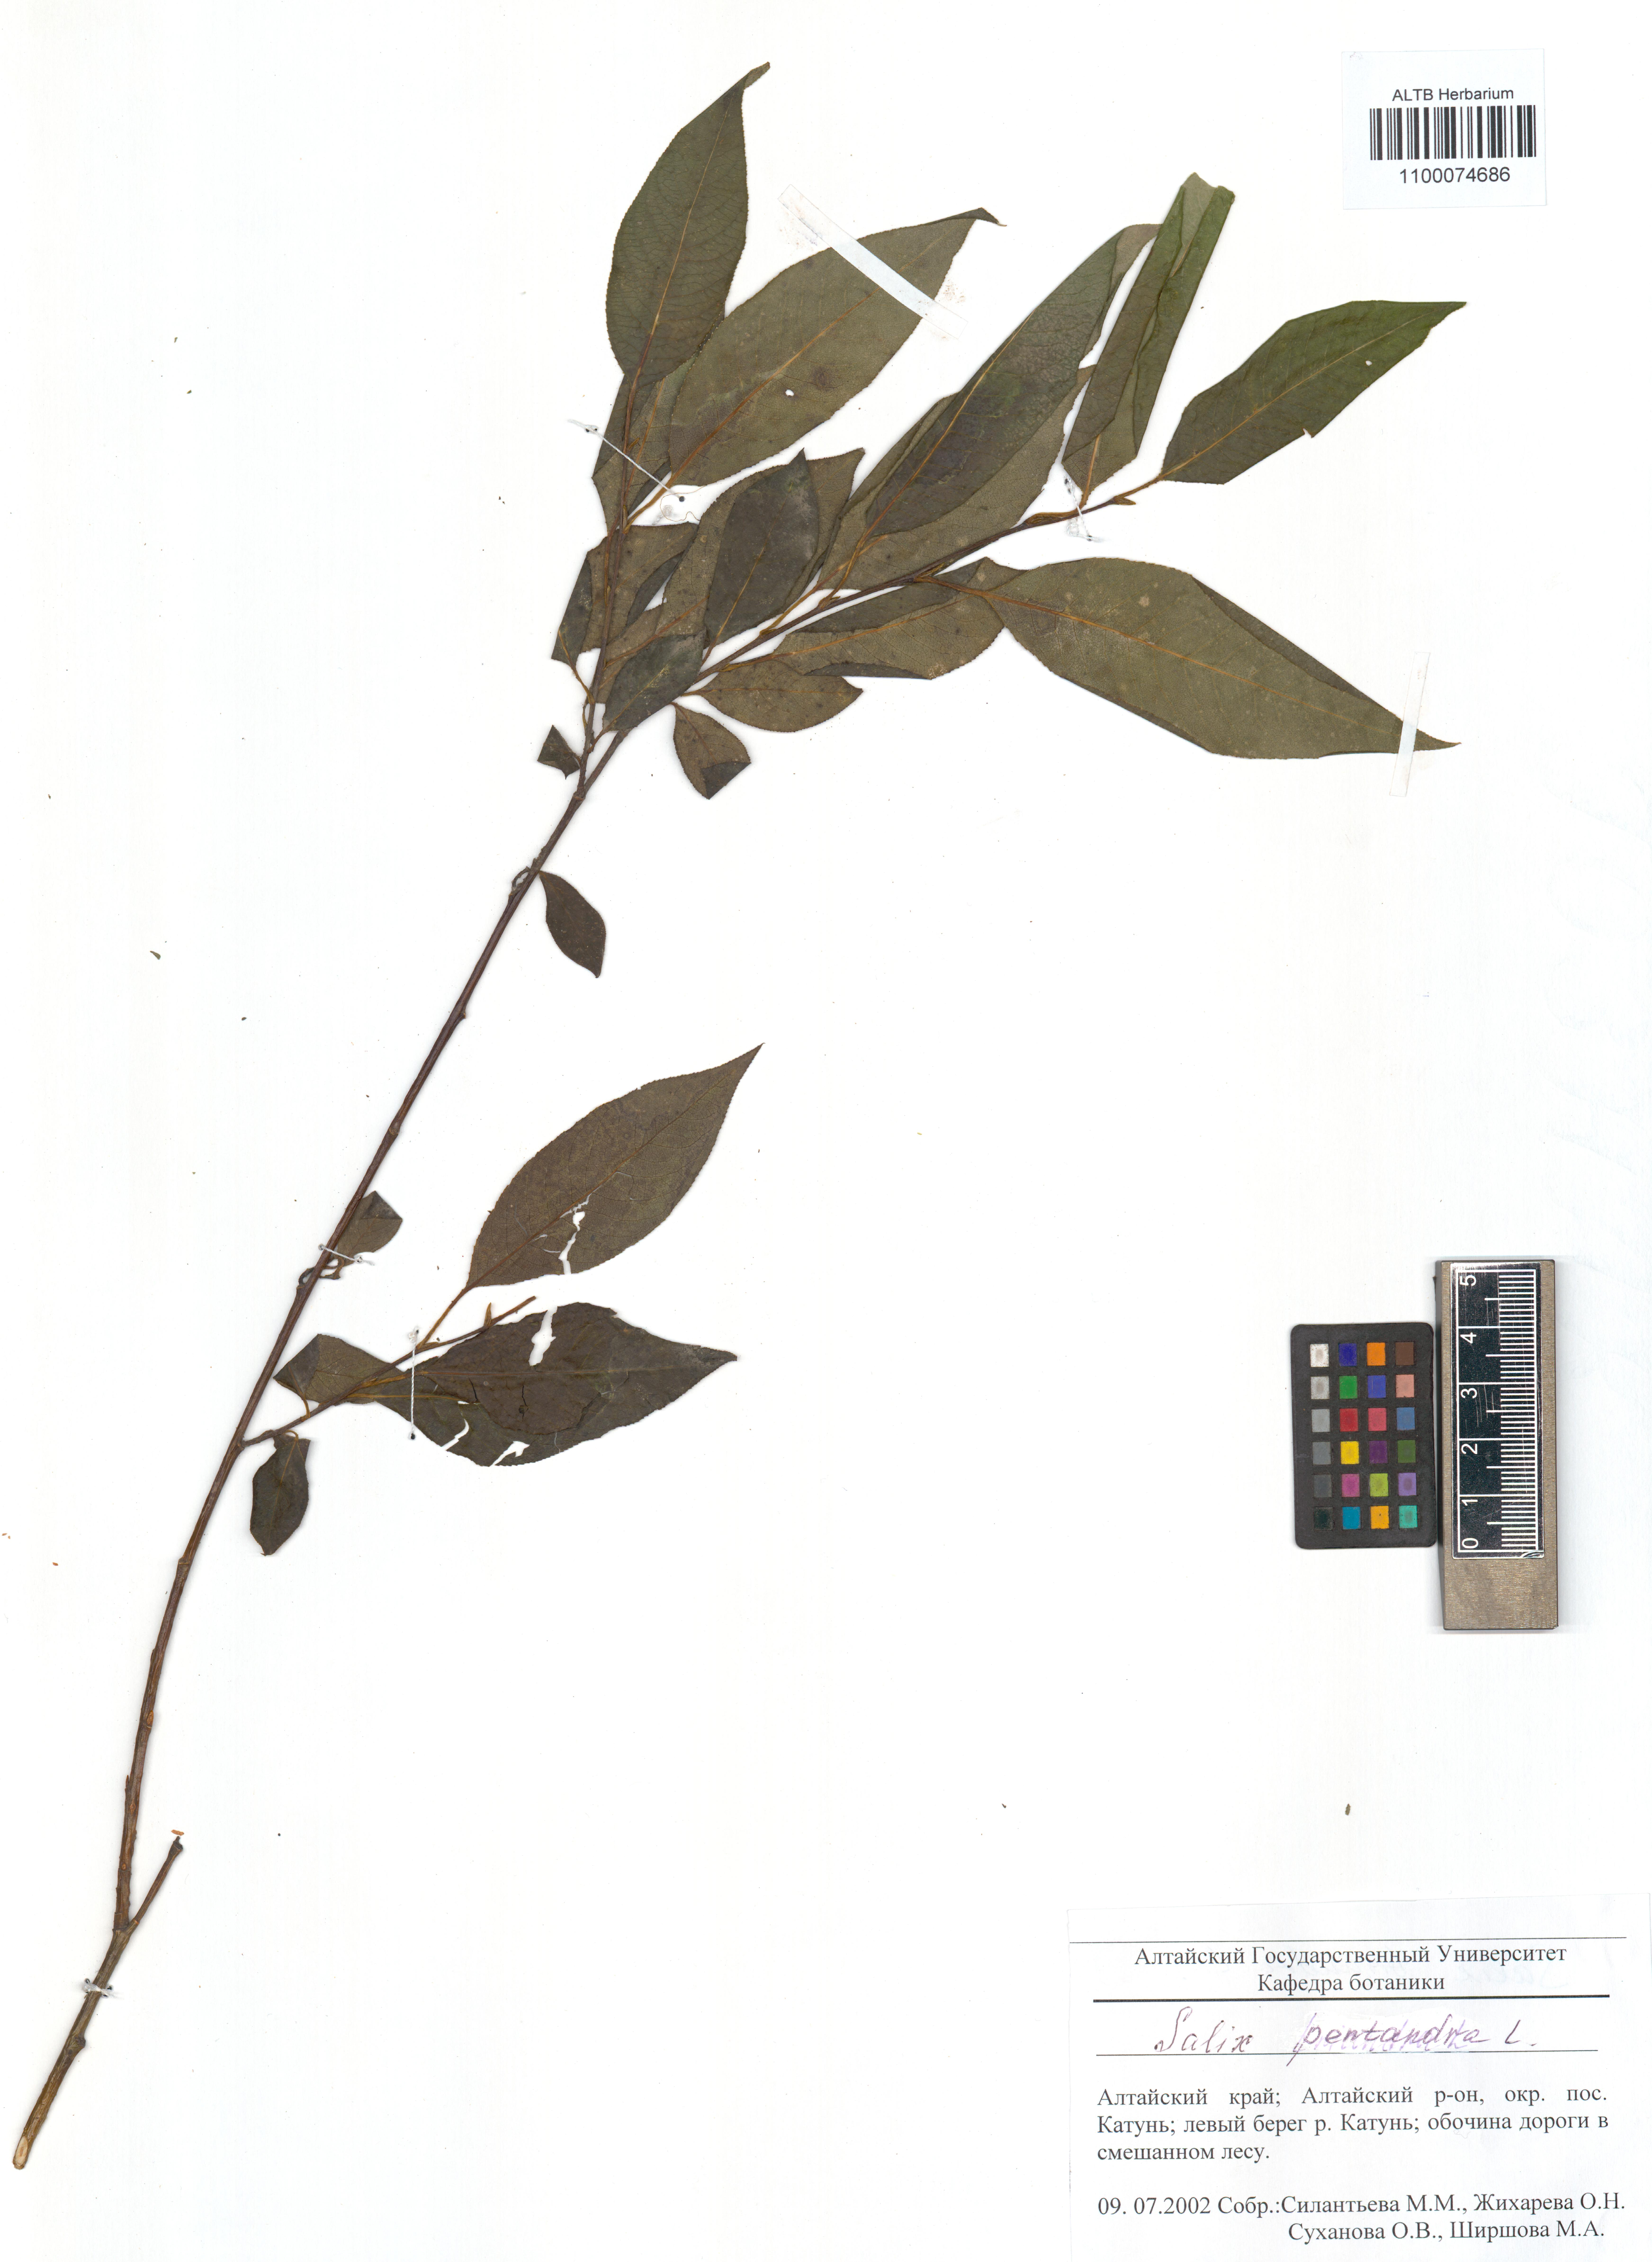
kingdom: Plantae
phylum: Tracheophyta
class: Magnoliopsida
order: Malpighiales
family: Salicaceae
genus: Salix
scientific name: Salix pentandra
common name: Bay willow
